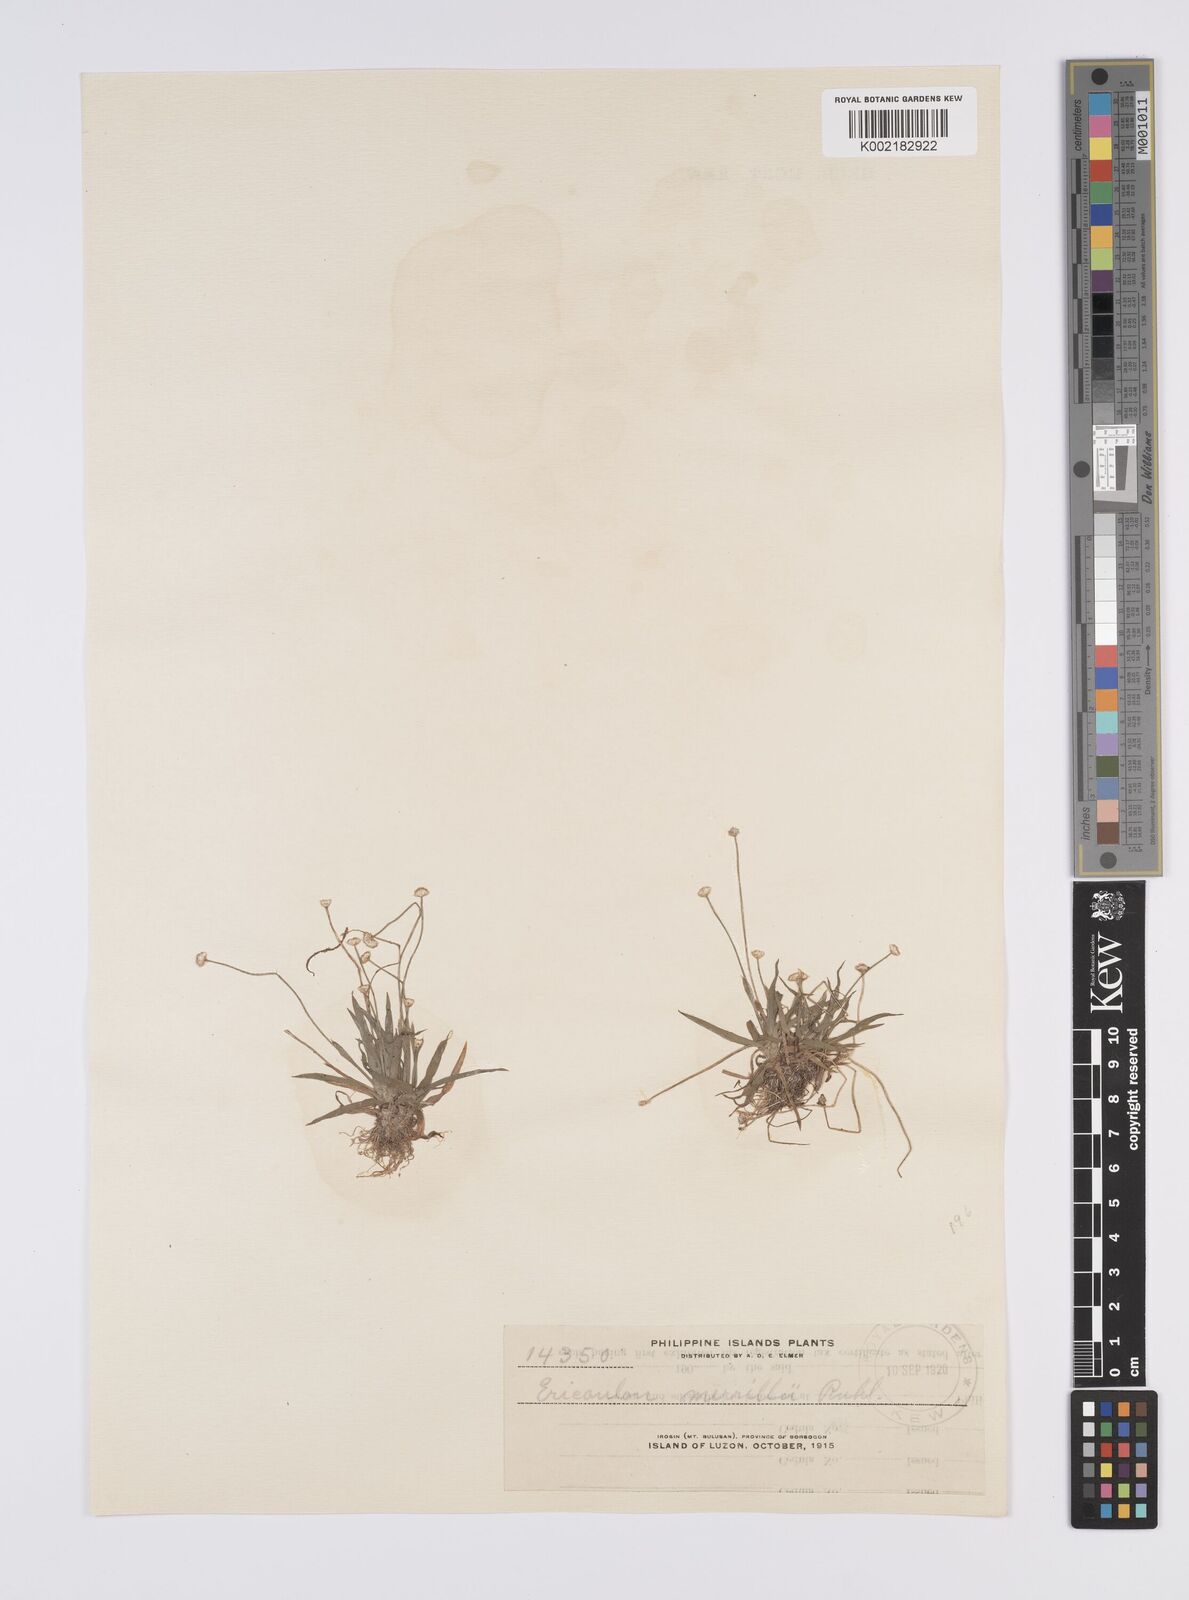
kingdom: Plantae
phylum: Tracheophyta
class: Liliopsida
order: Poales
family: Eriocaulaceae
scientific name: Eriocaulaceae
